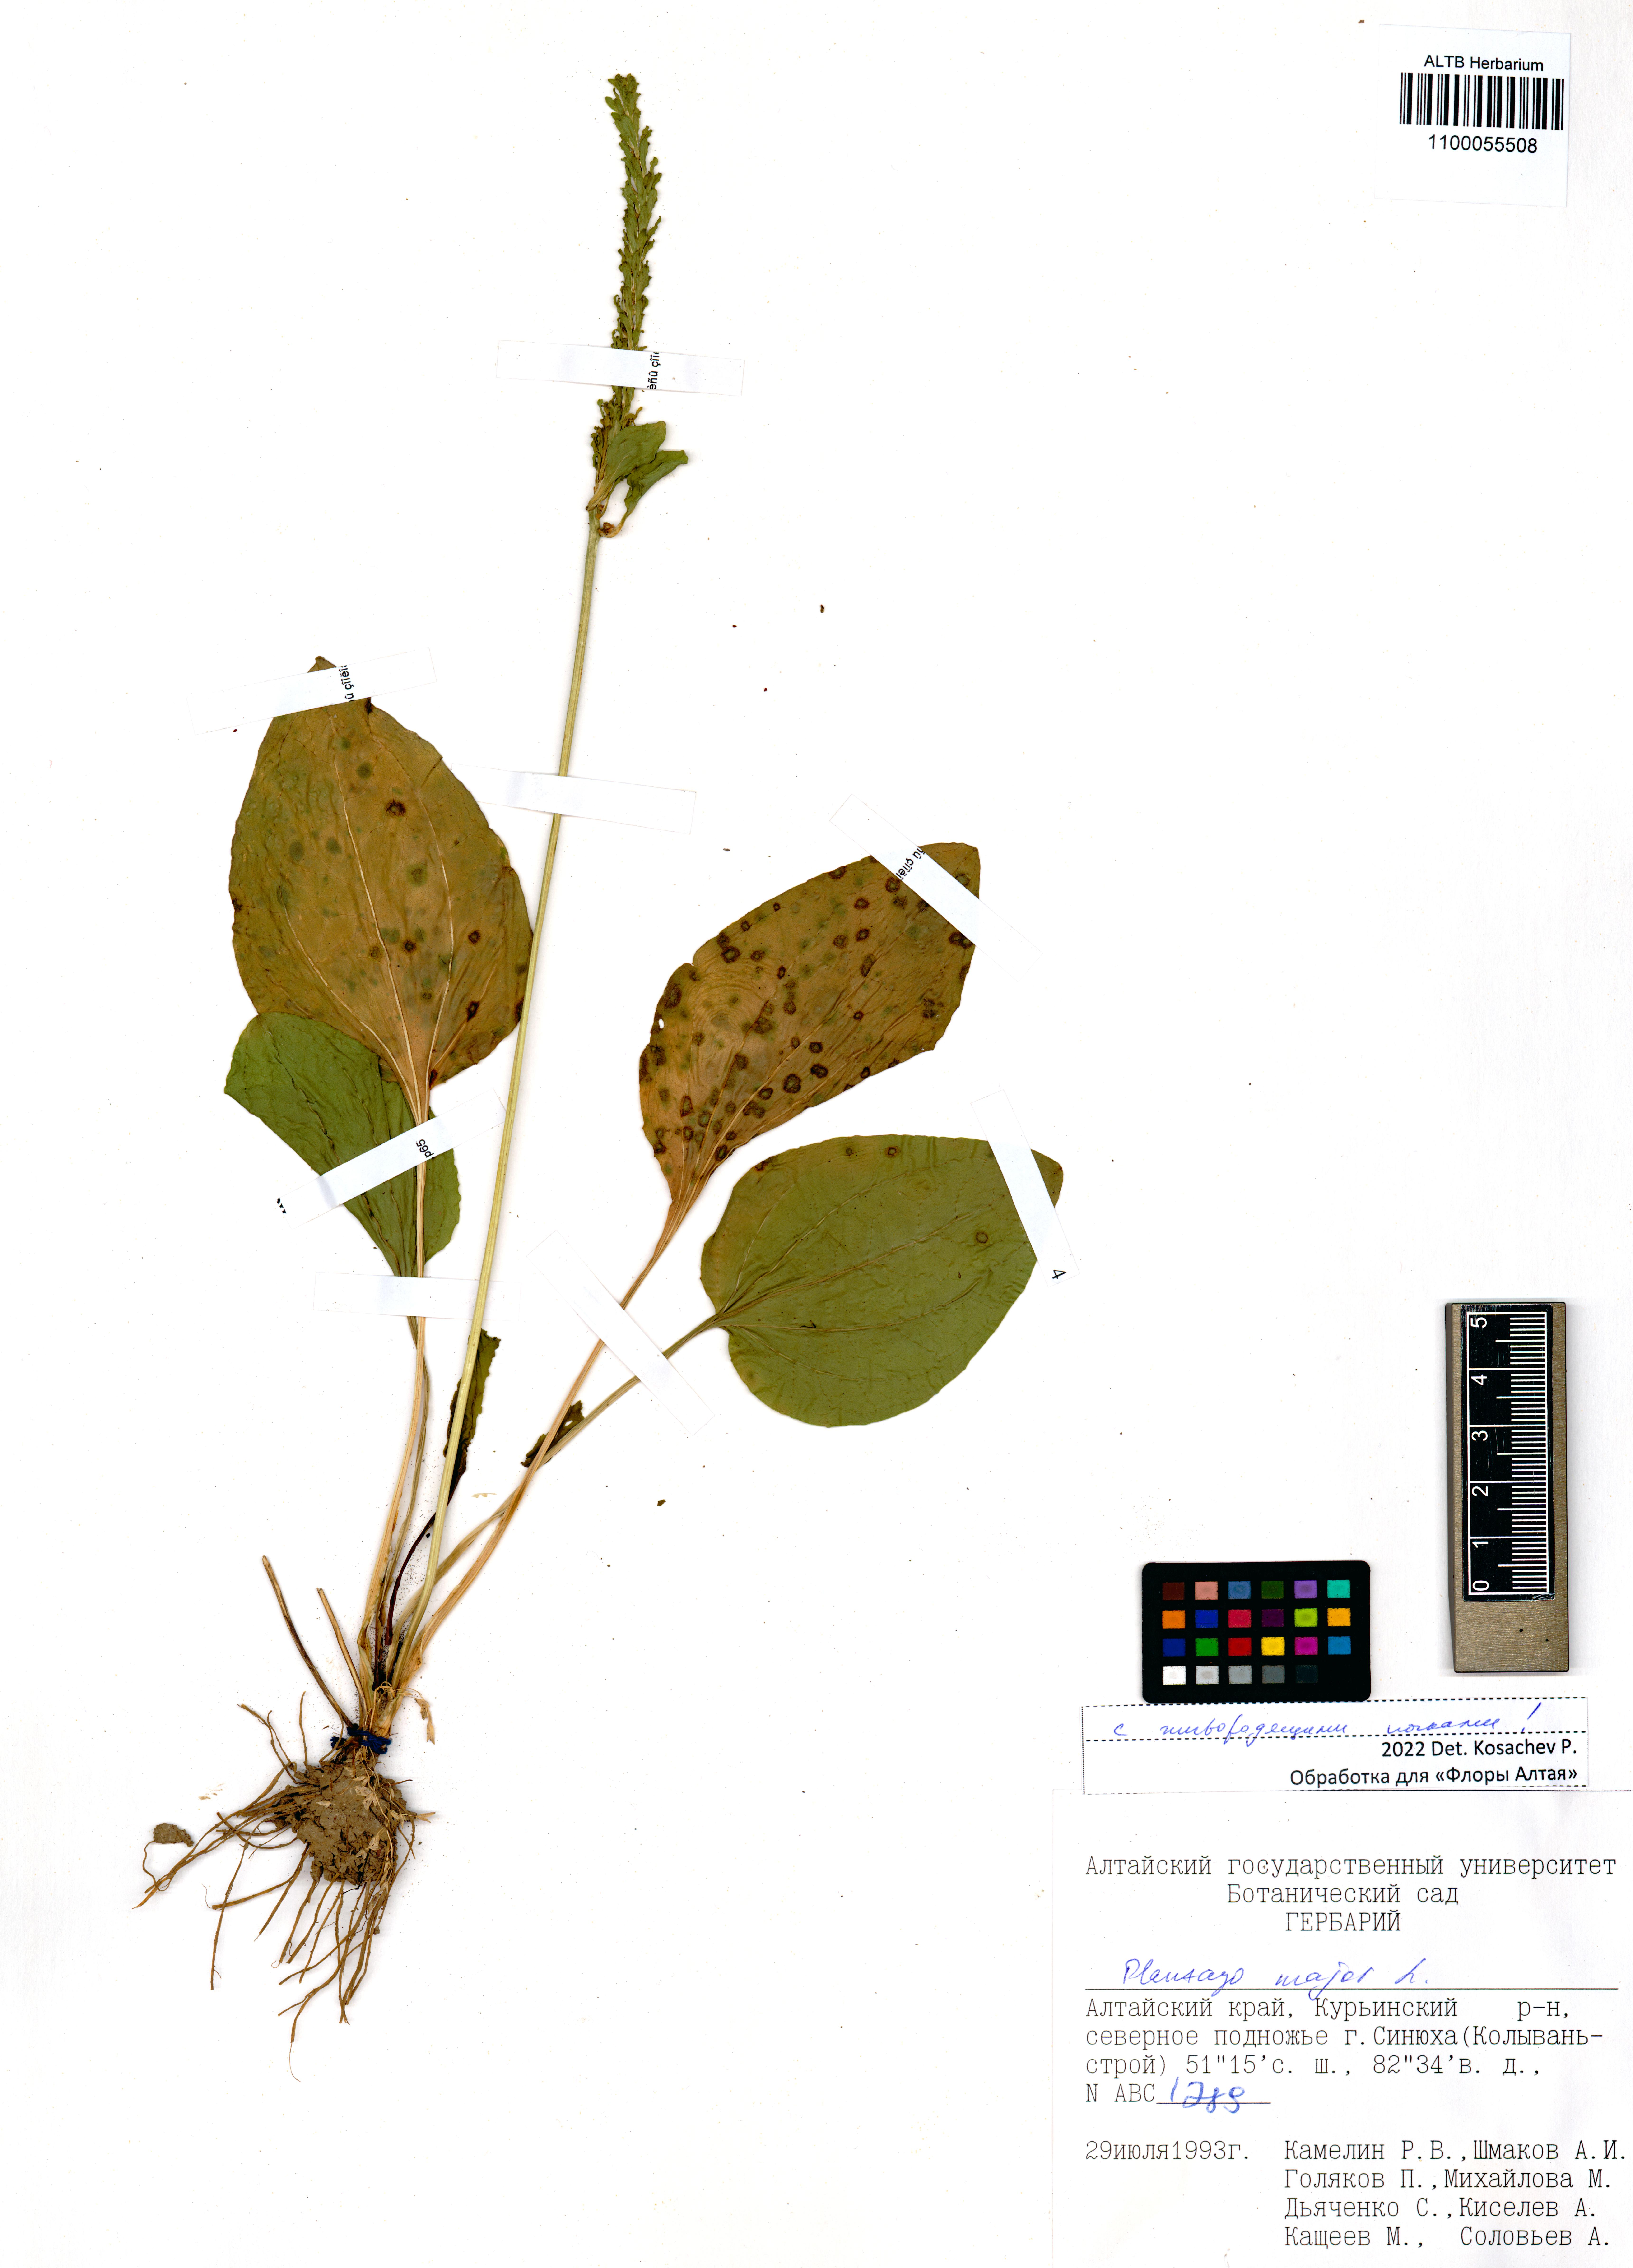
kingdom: Plantae
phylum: Tracheophyta
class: Magnoliopsida
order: Lamiales
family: Plantaginaceae
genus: Plantago
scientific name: Plantago major
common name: Common plantain
